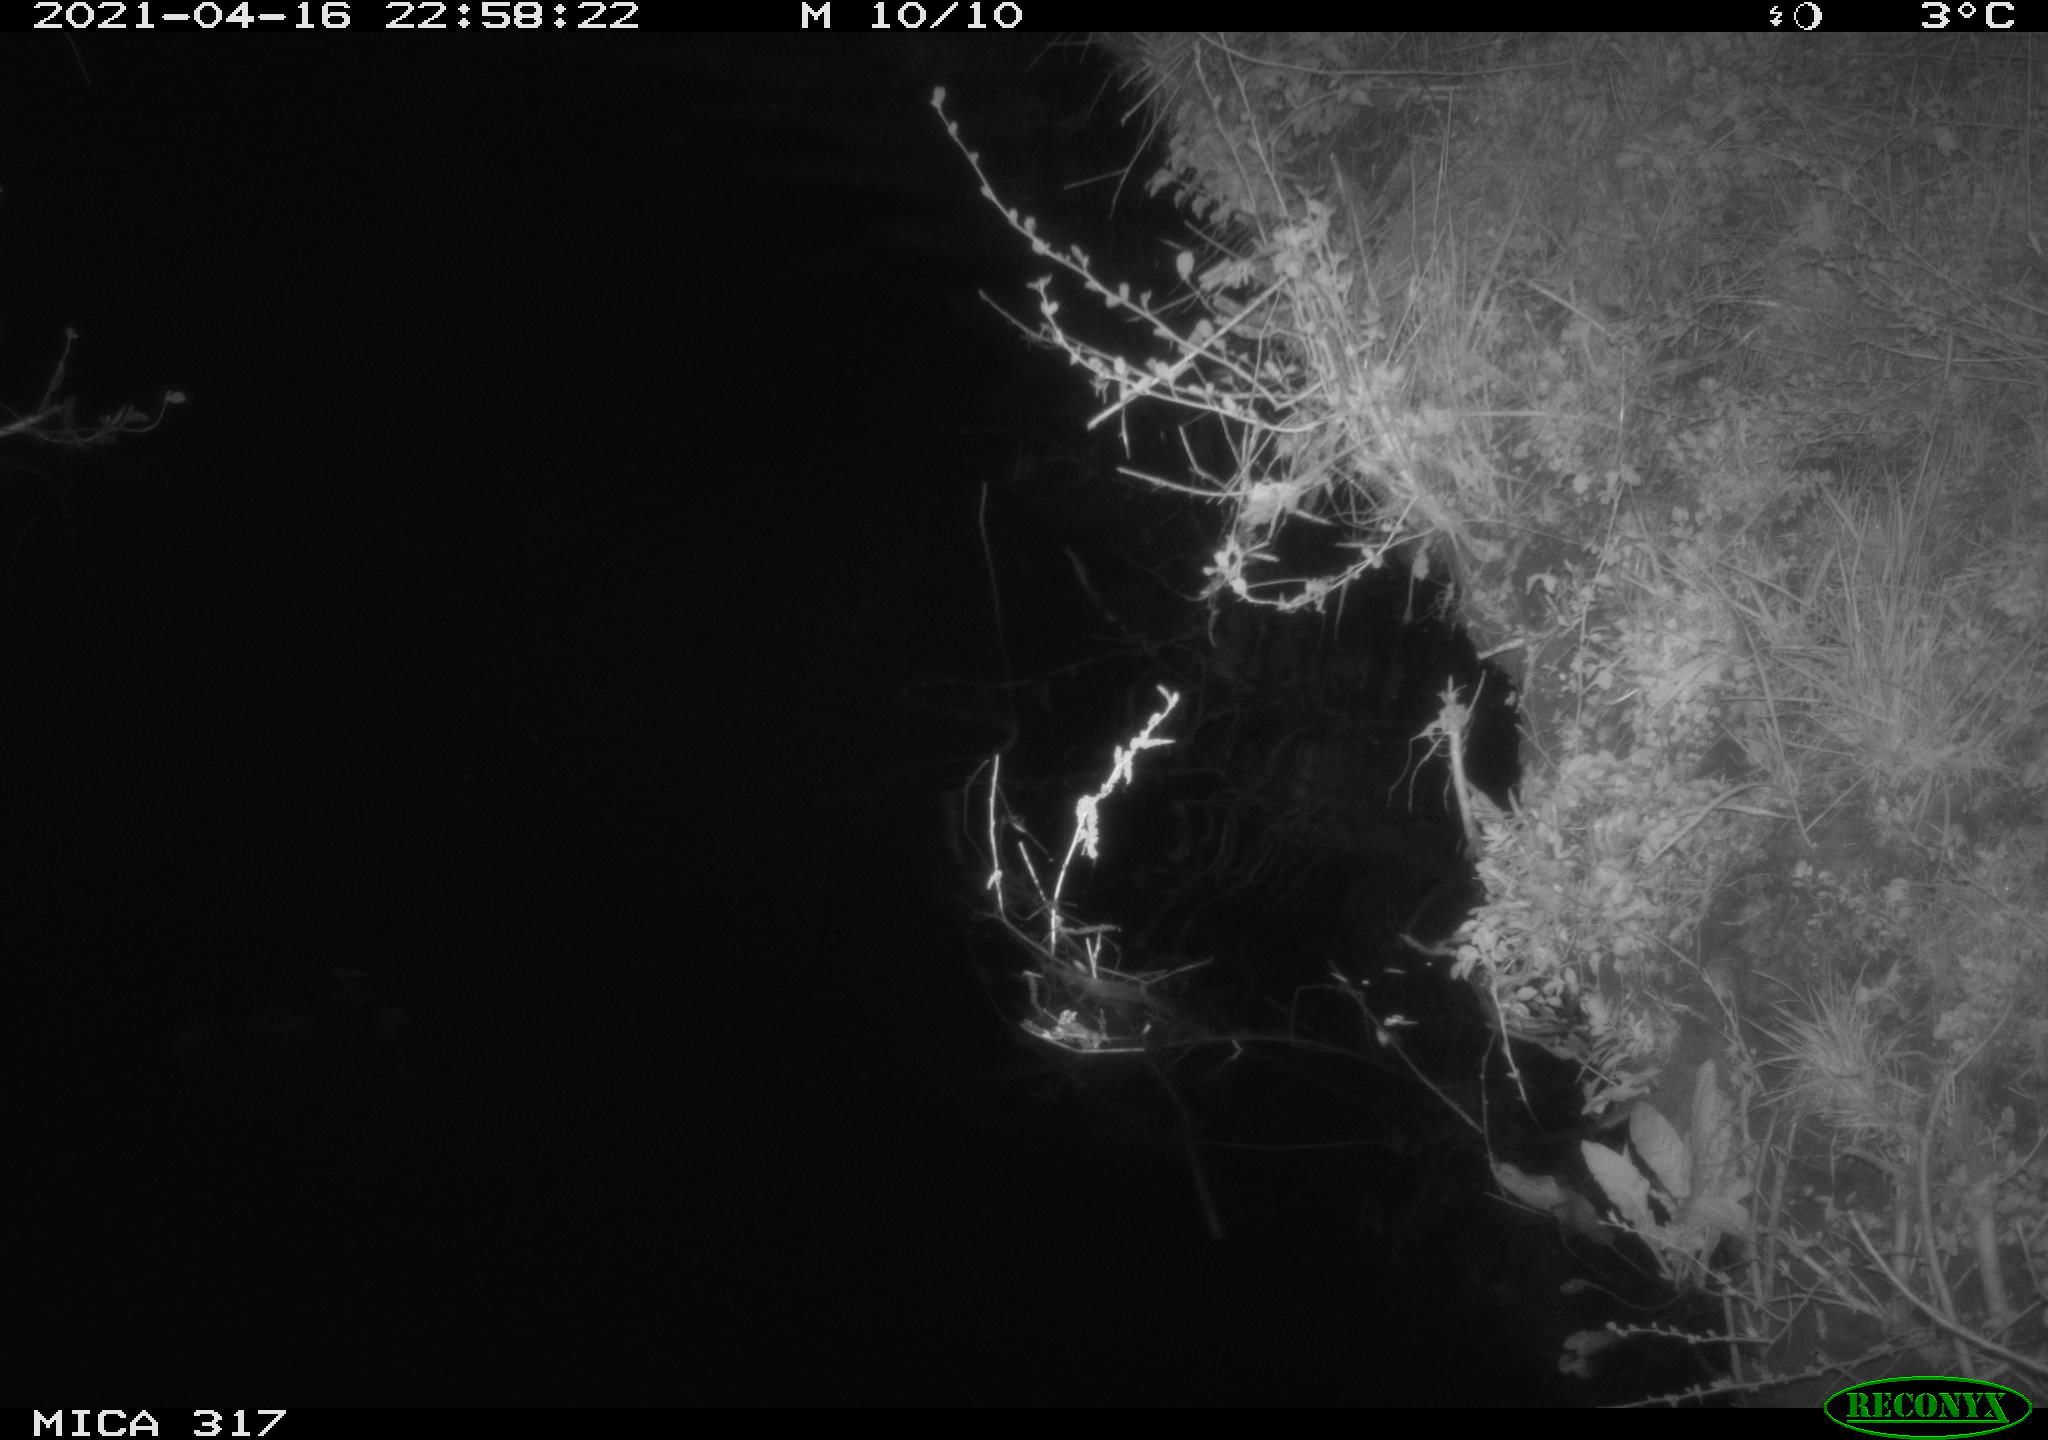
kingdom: Animalia
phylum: Chordata
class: Aves
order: Anseriformes
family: Anatidae
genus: Anas
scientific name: Anas platyrhynchos
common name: Mallard
